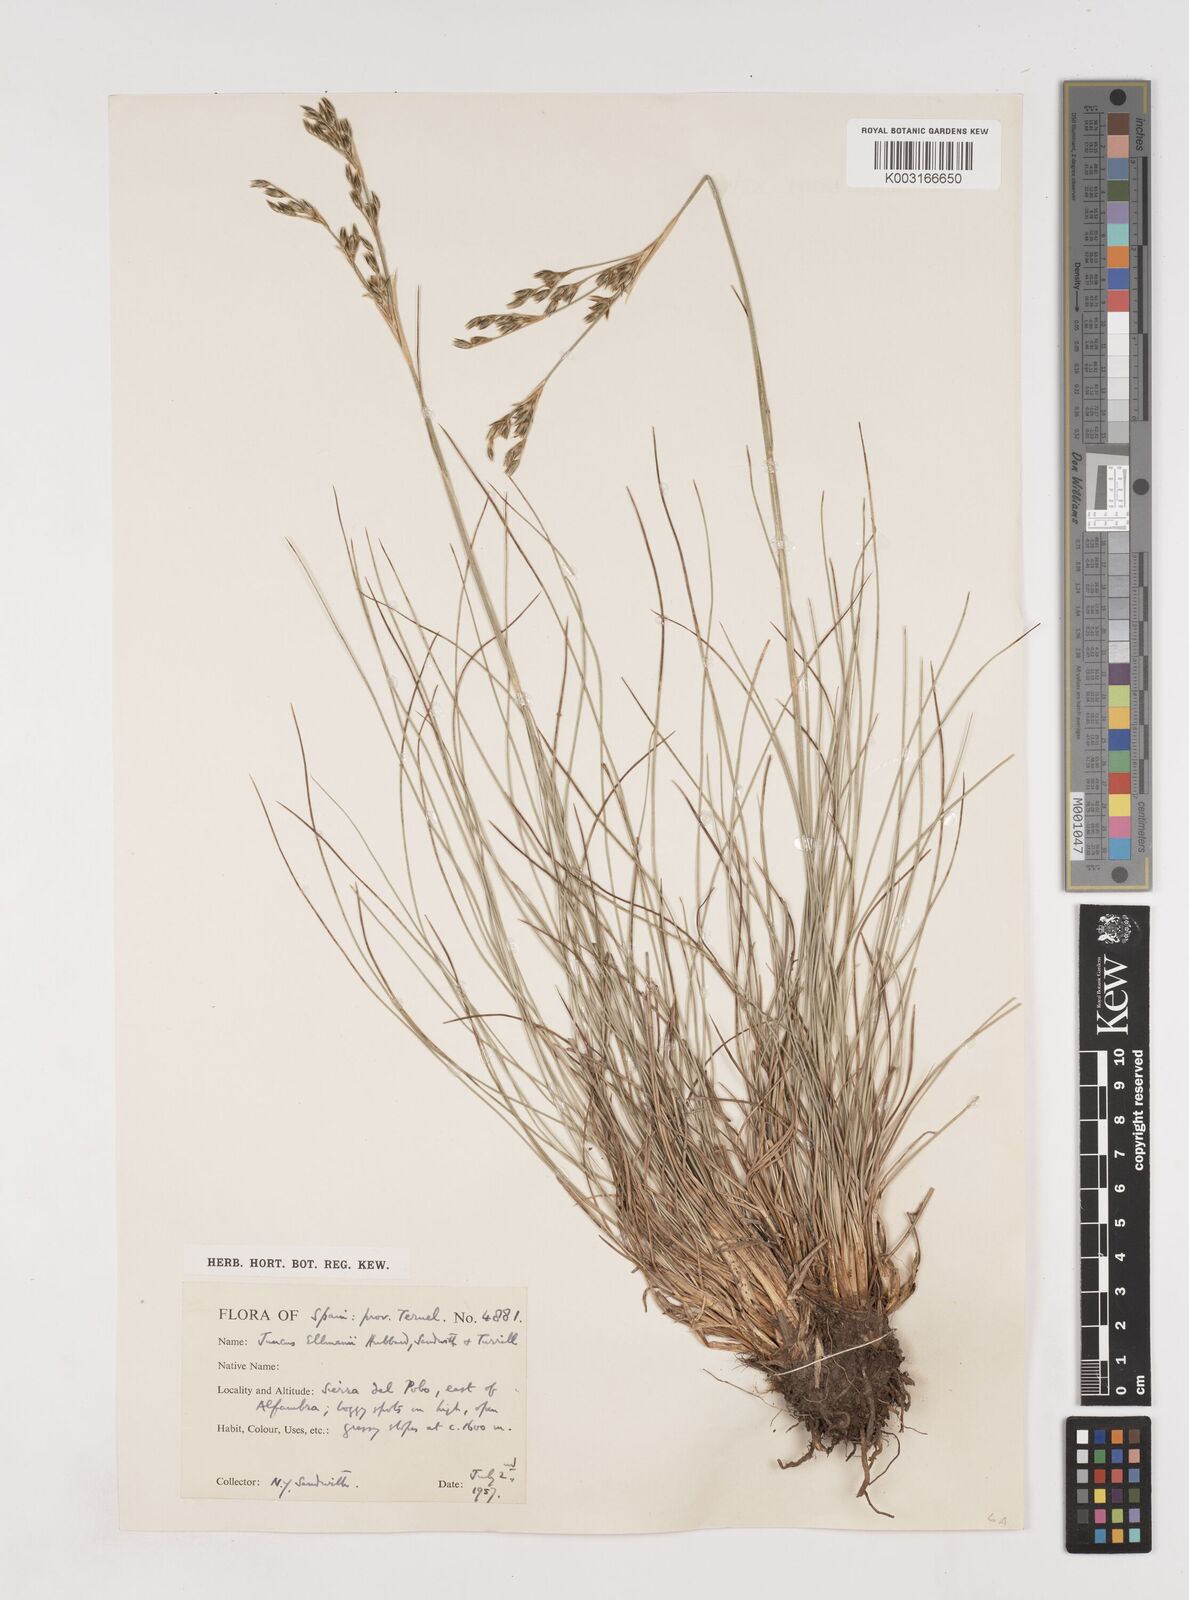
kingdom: Plantae
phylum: Tracheophyta
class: Liliopsida
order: Poales
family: Juncaceae
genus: Juncus
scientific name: Juncus squarrosus
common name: Heath rush
